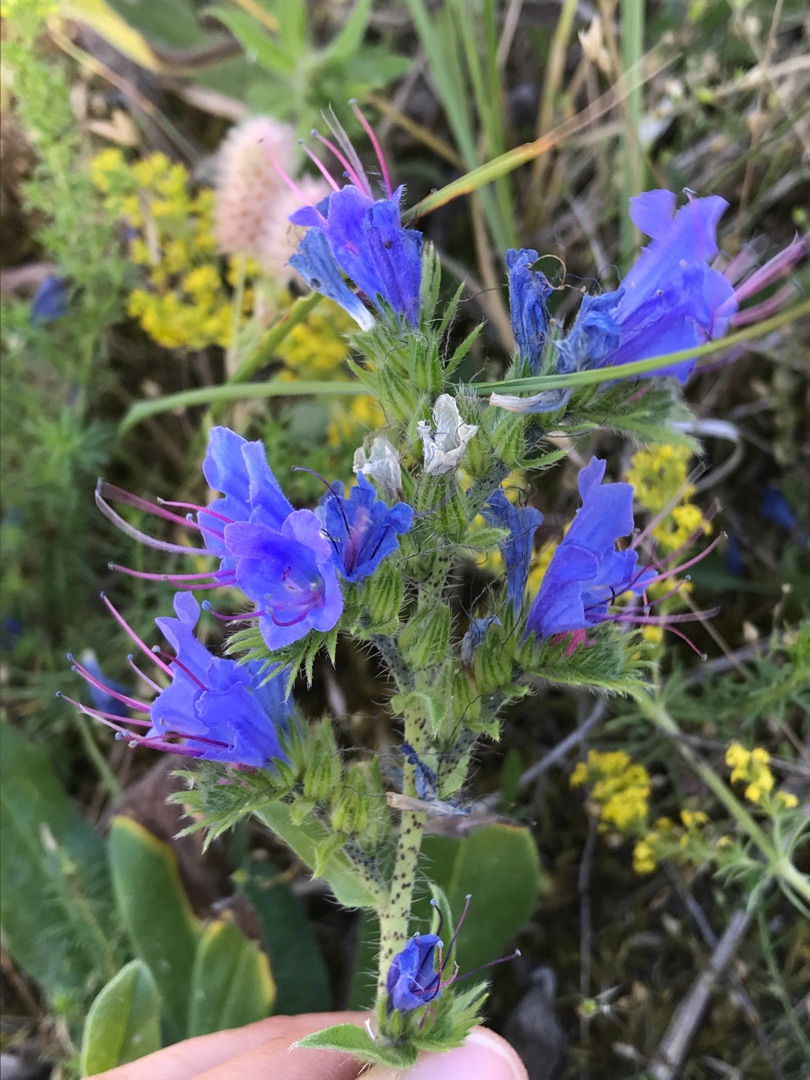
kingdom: Plantae
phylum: Tracheophyta
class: Magnoliopsida
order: Boraginales
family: Boraginaceae
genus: Echium
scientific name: Echium vulgare
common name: Slangehoved
